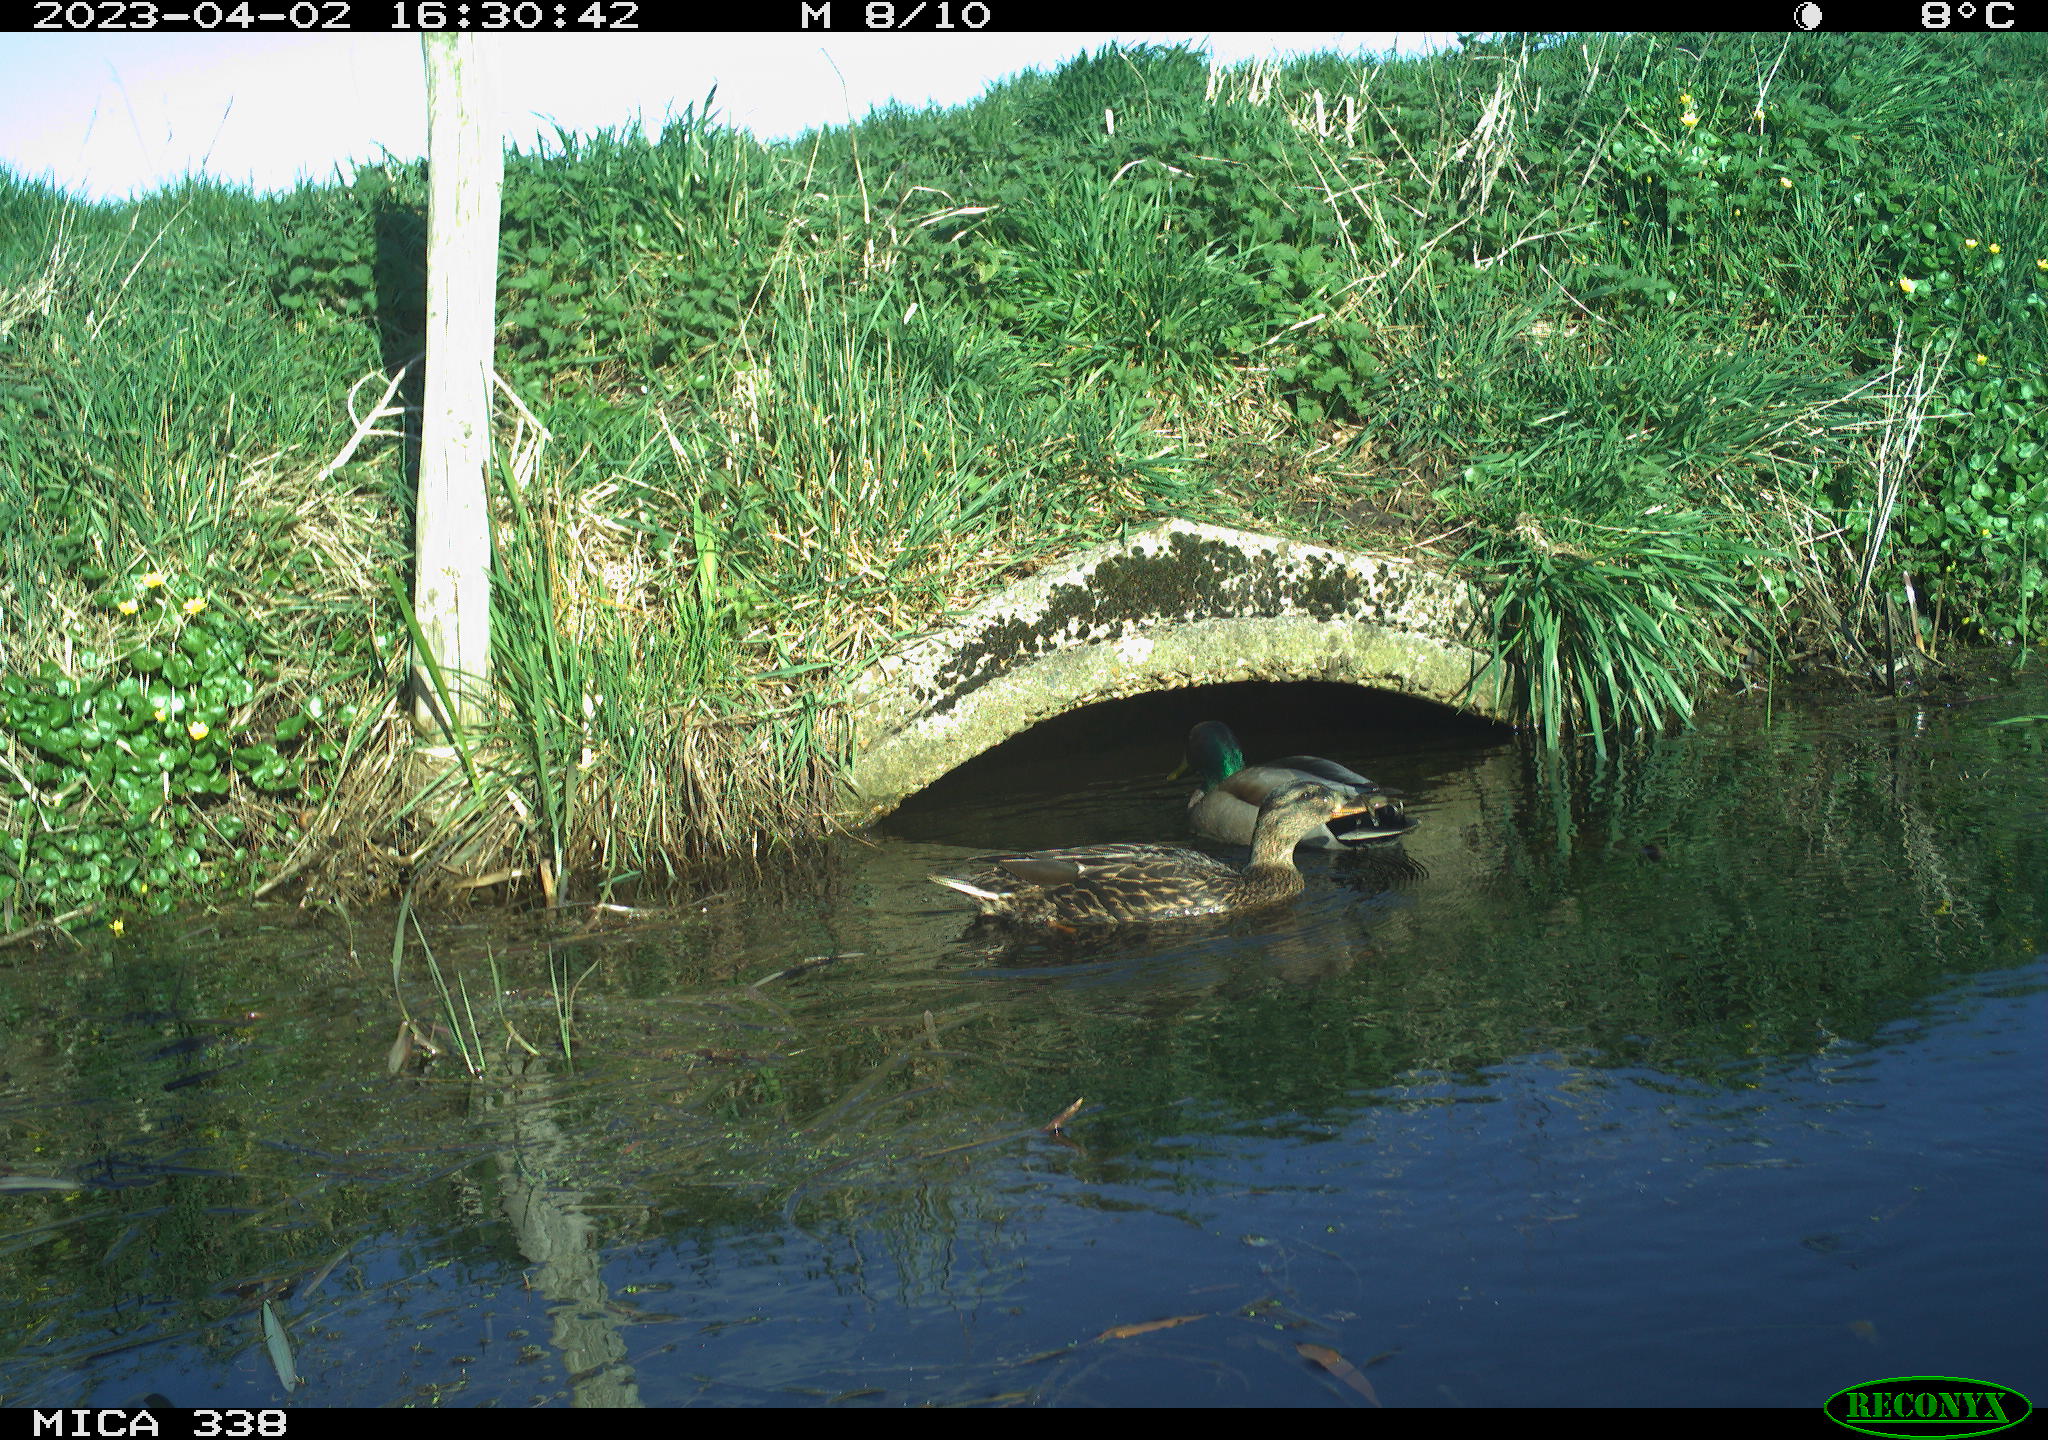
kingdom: Animalia
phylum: Chordata
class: Aves
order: Anseriformes
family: Anatidae
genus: Anas
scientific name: Anas platyrhynchos
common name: Mallard
